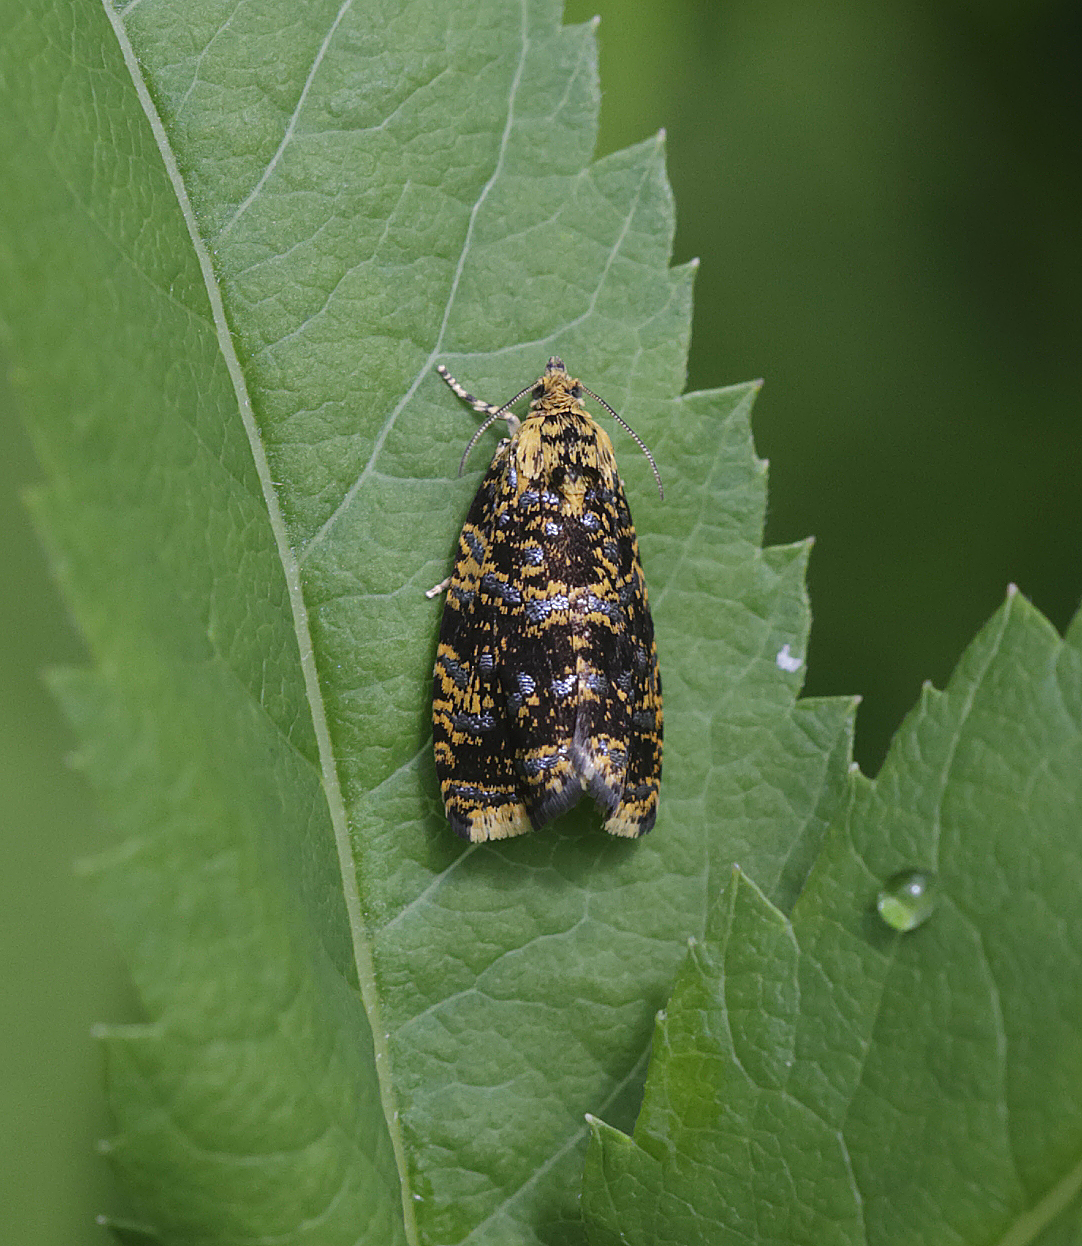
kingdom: Animalia
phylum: Arthropoda
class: Insecta
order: Lepidoptera
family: Tortricidae
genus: Phiaris
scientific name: Phiaris siderana
